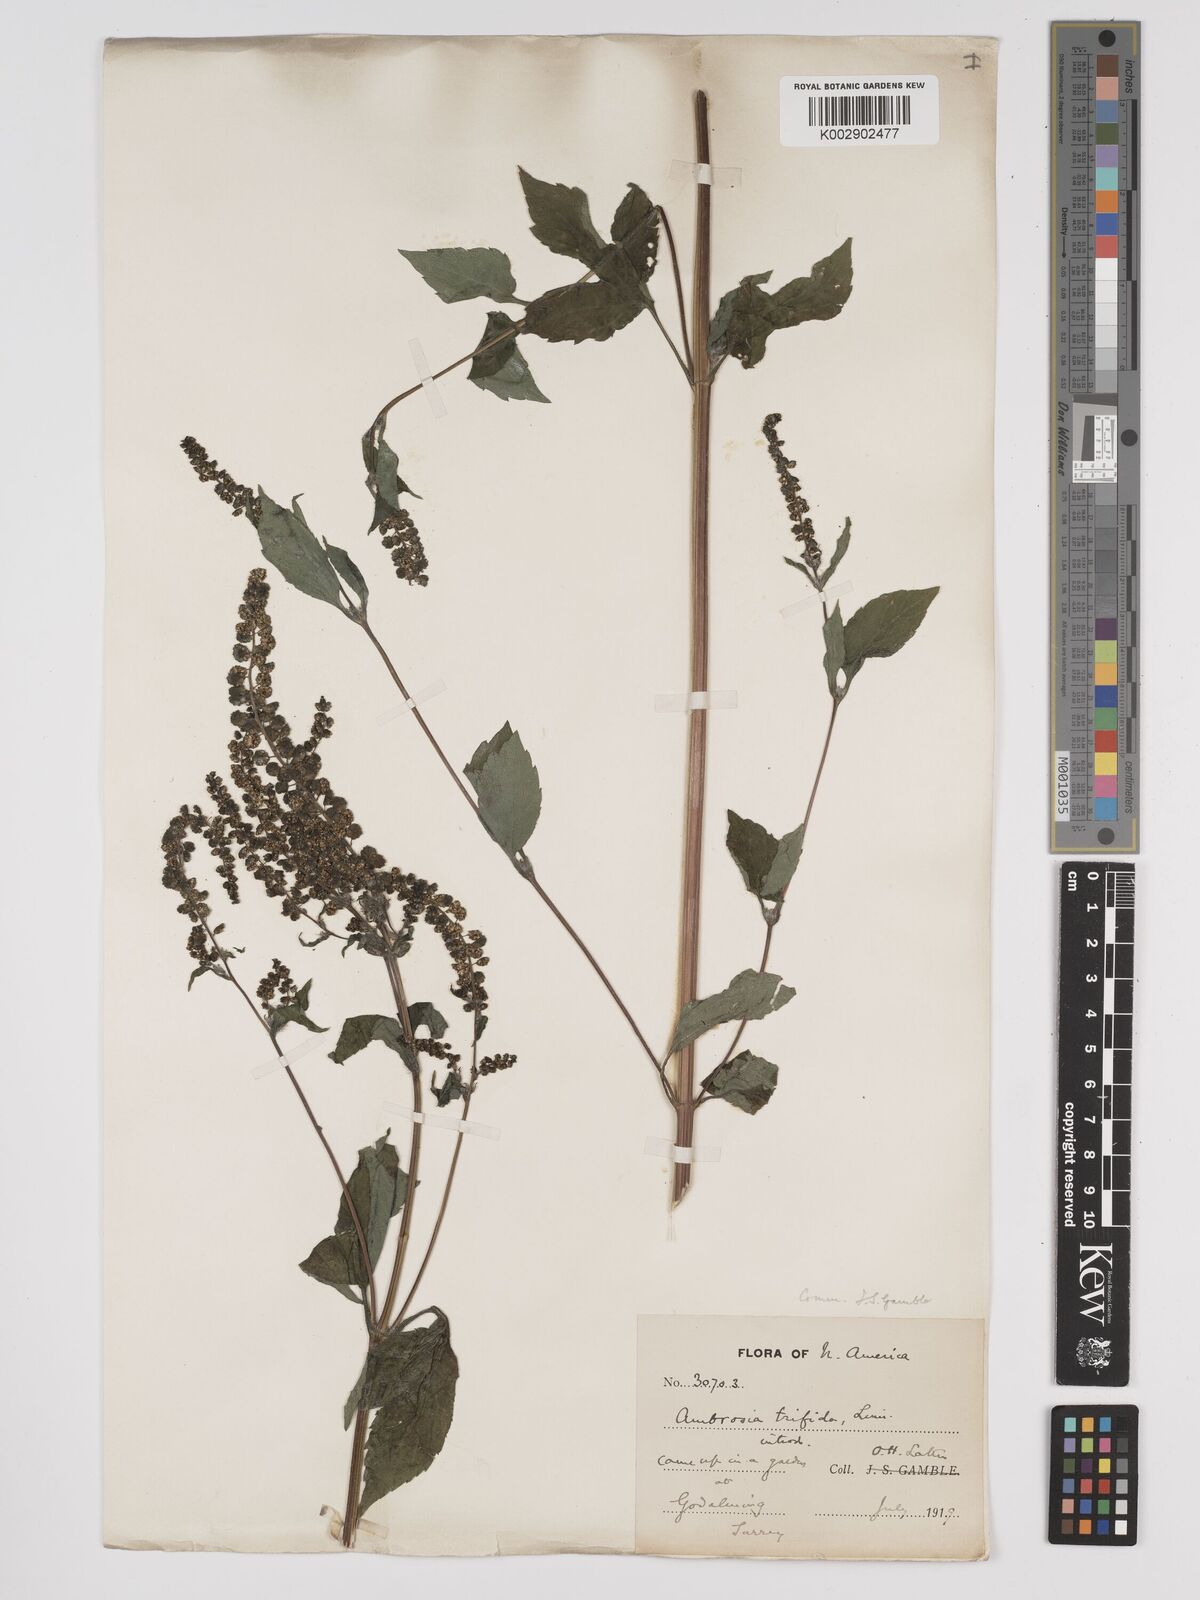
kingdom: Plantae
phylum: Tracheophyta
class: Magnoliopsida
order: Asterales
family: Asteraceae
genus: Ambrosia
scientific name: Ambrosia trifida
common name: Giant ragweed
